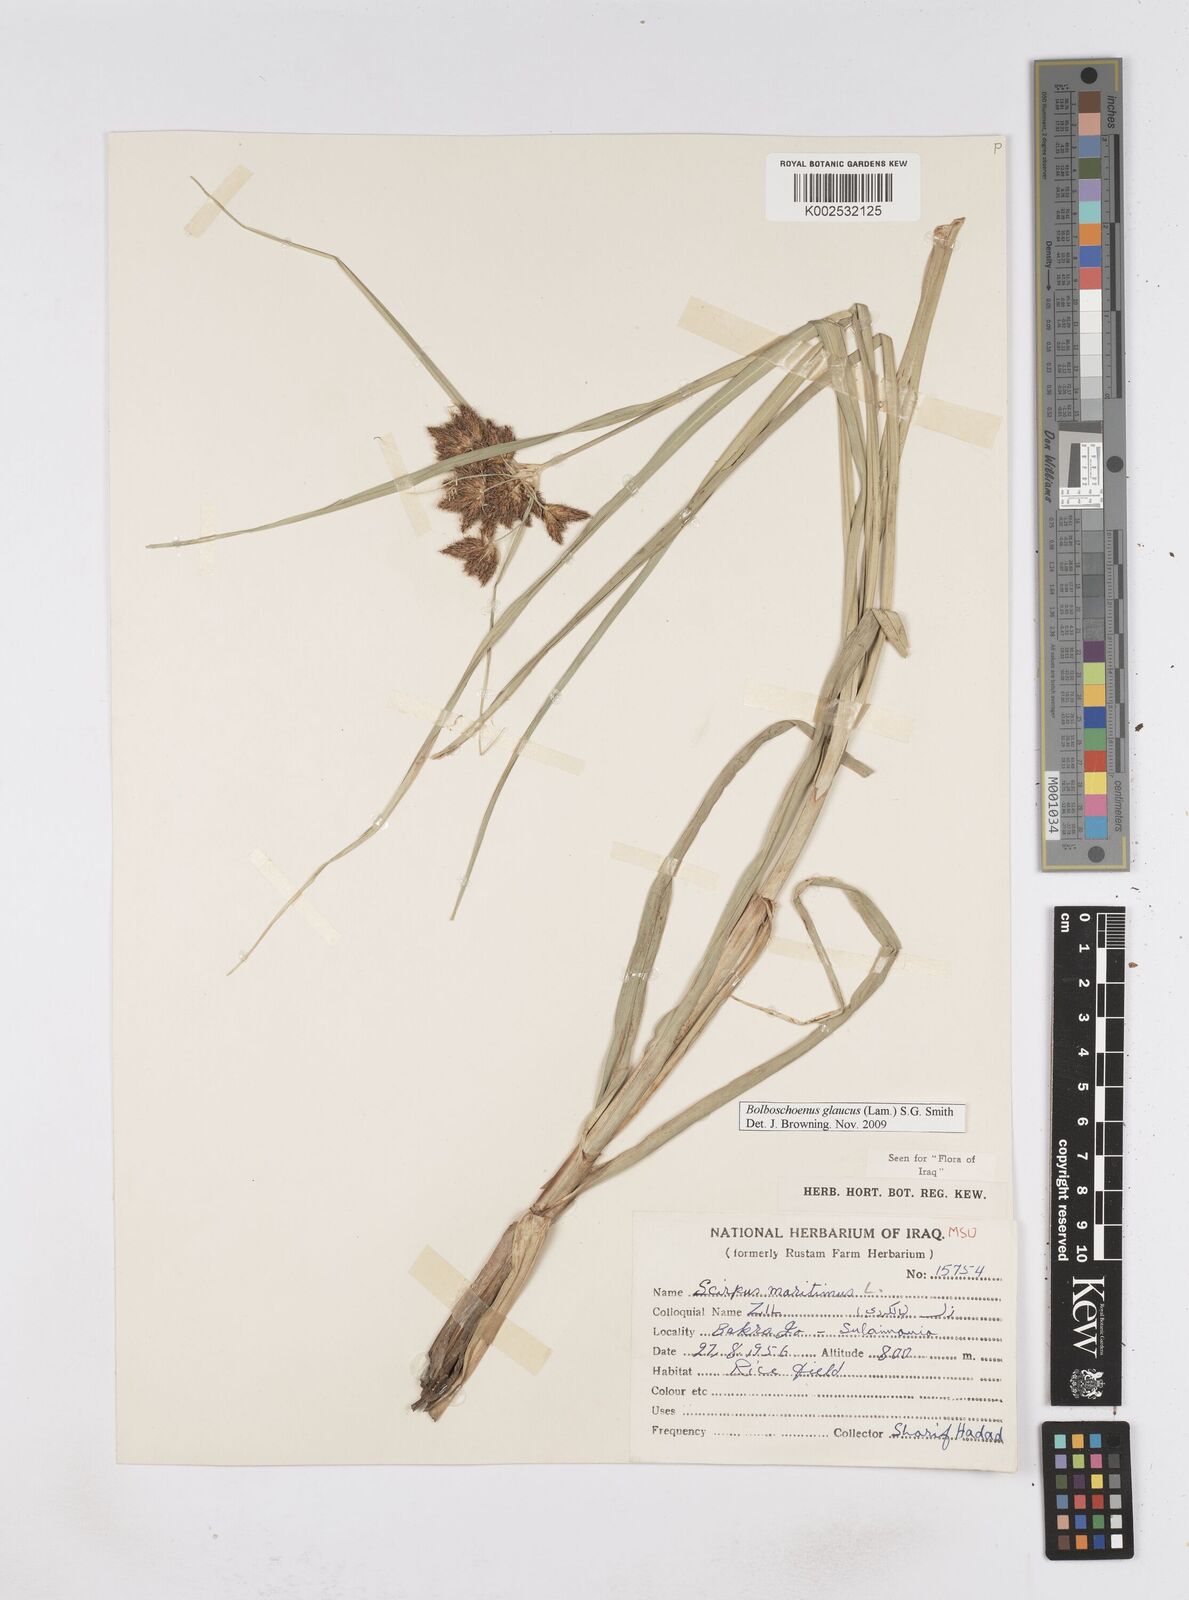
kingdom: Plantae
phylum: Tracheophyta
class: Liliopsida
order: Poales
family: Cyperaceae
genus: Bolboschoenus
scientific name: Bolboschoenus maritimus
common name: Sea club-rush
